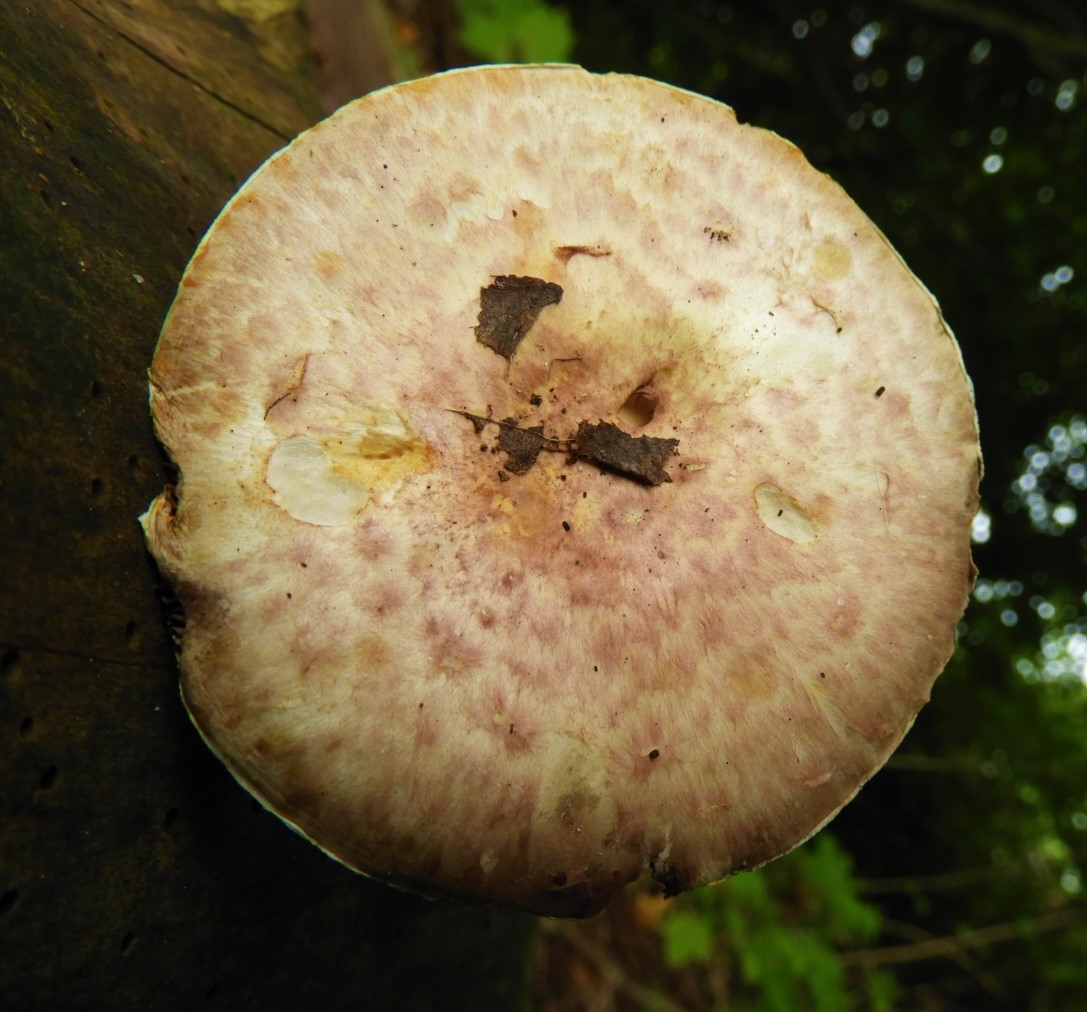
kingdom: Fungi
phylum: Basidiomycota
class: Agaricomycetes
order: Agaricales
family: Agaricaceae
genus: Agaricus
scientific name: Agaricus brunneolus
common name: purpur-champignon
